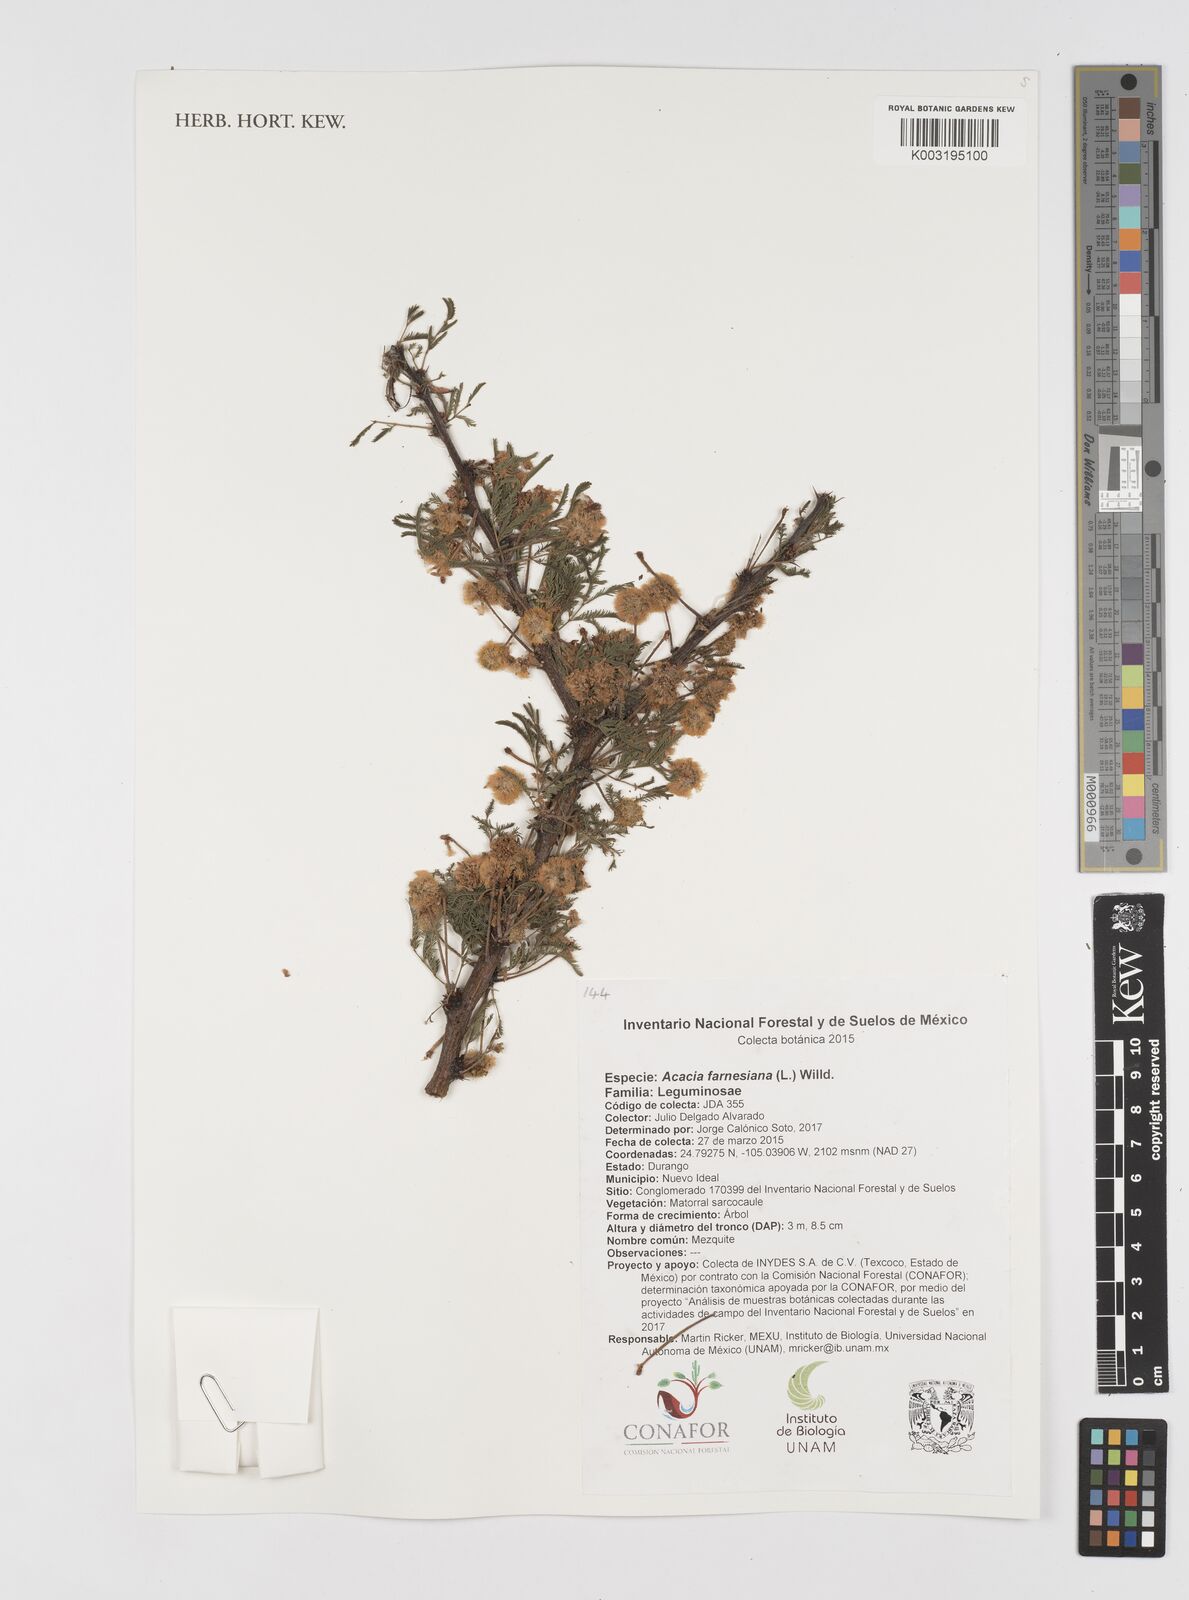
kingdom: Plantae
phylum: Tracheophyta
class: Magnoliopsida
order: Fabales
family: Fabaceae
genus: Vachellia
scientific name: Vachellia farnesiana
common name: Sweet acacia
